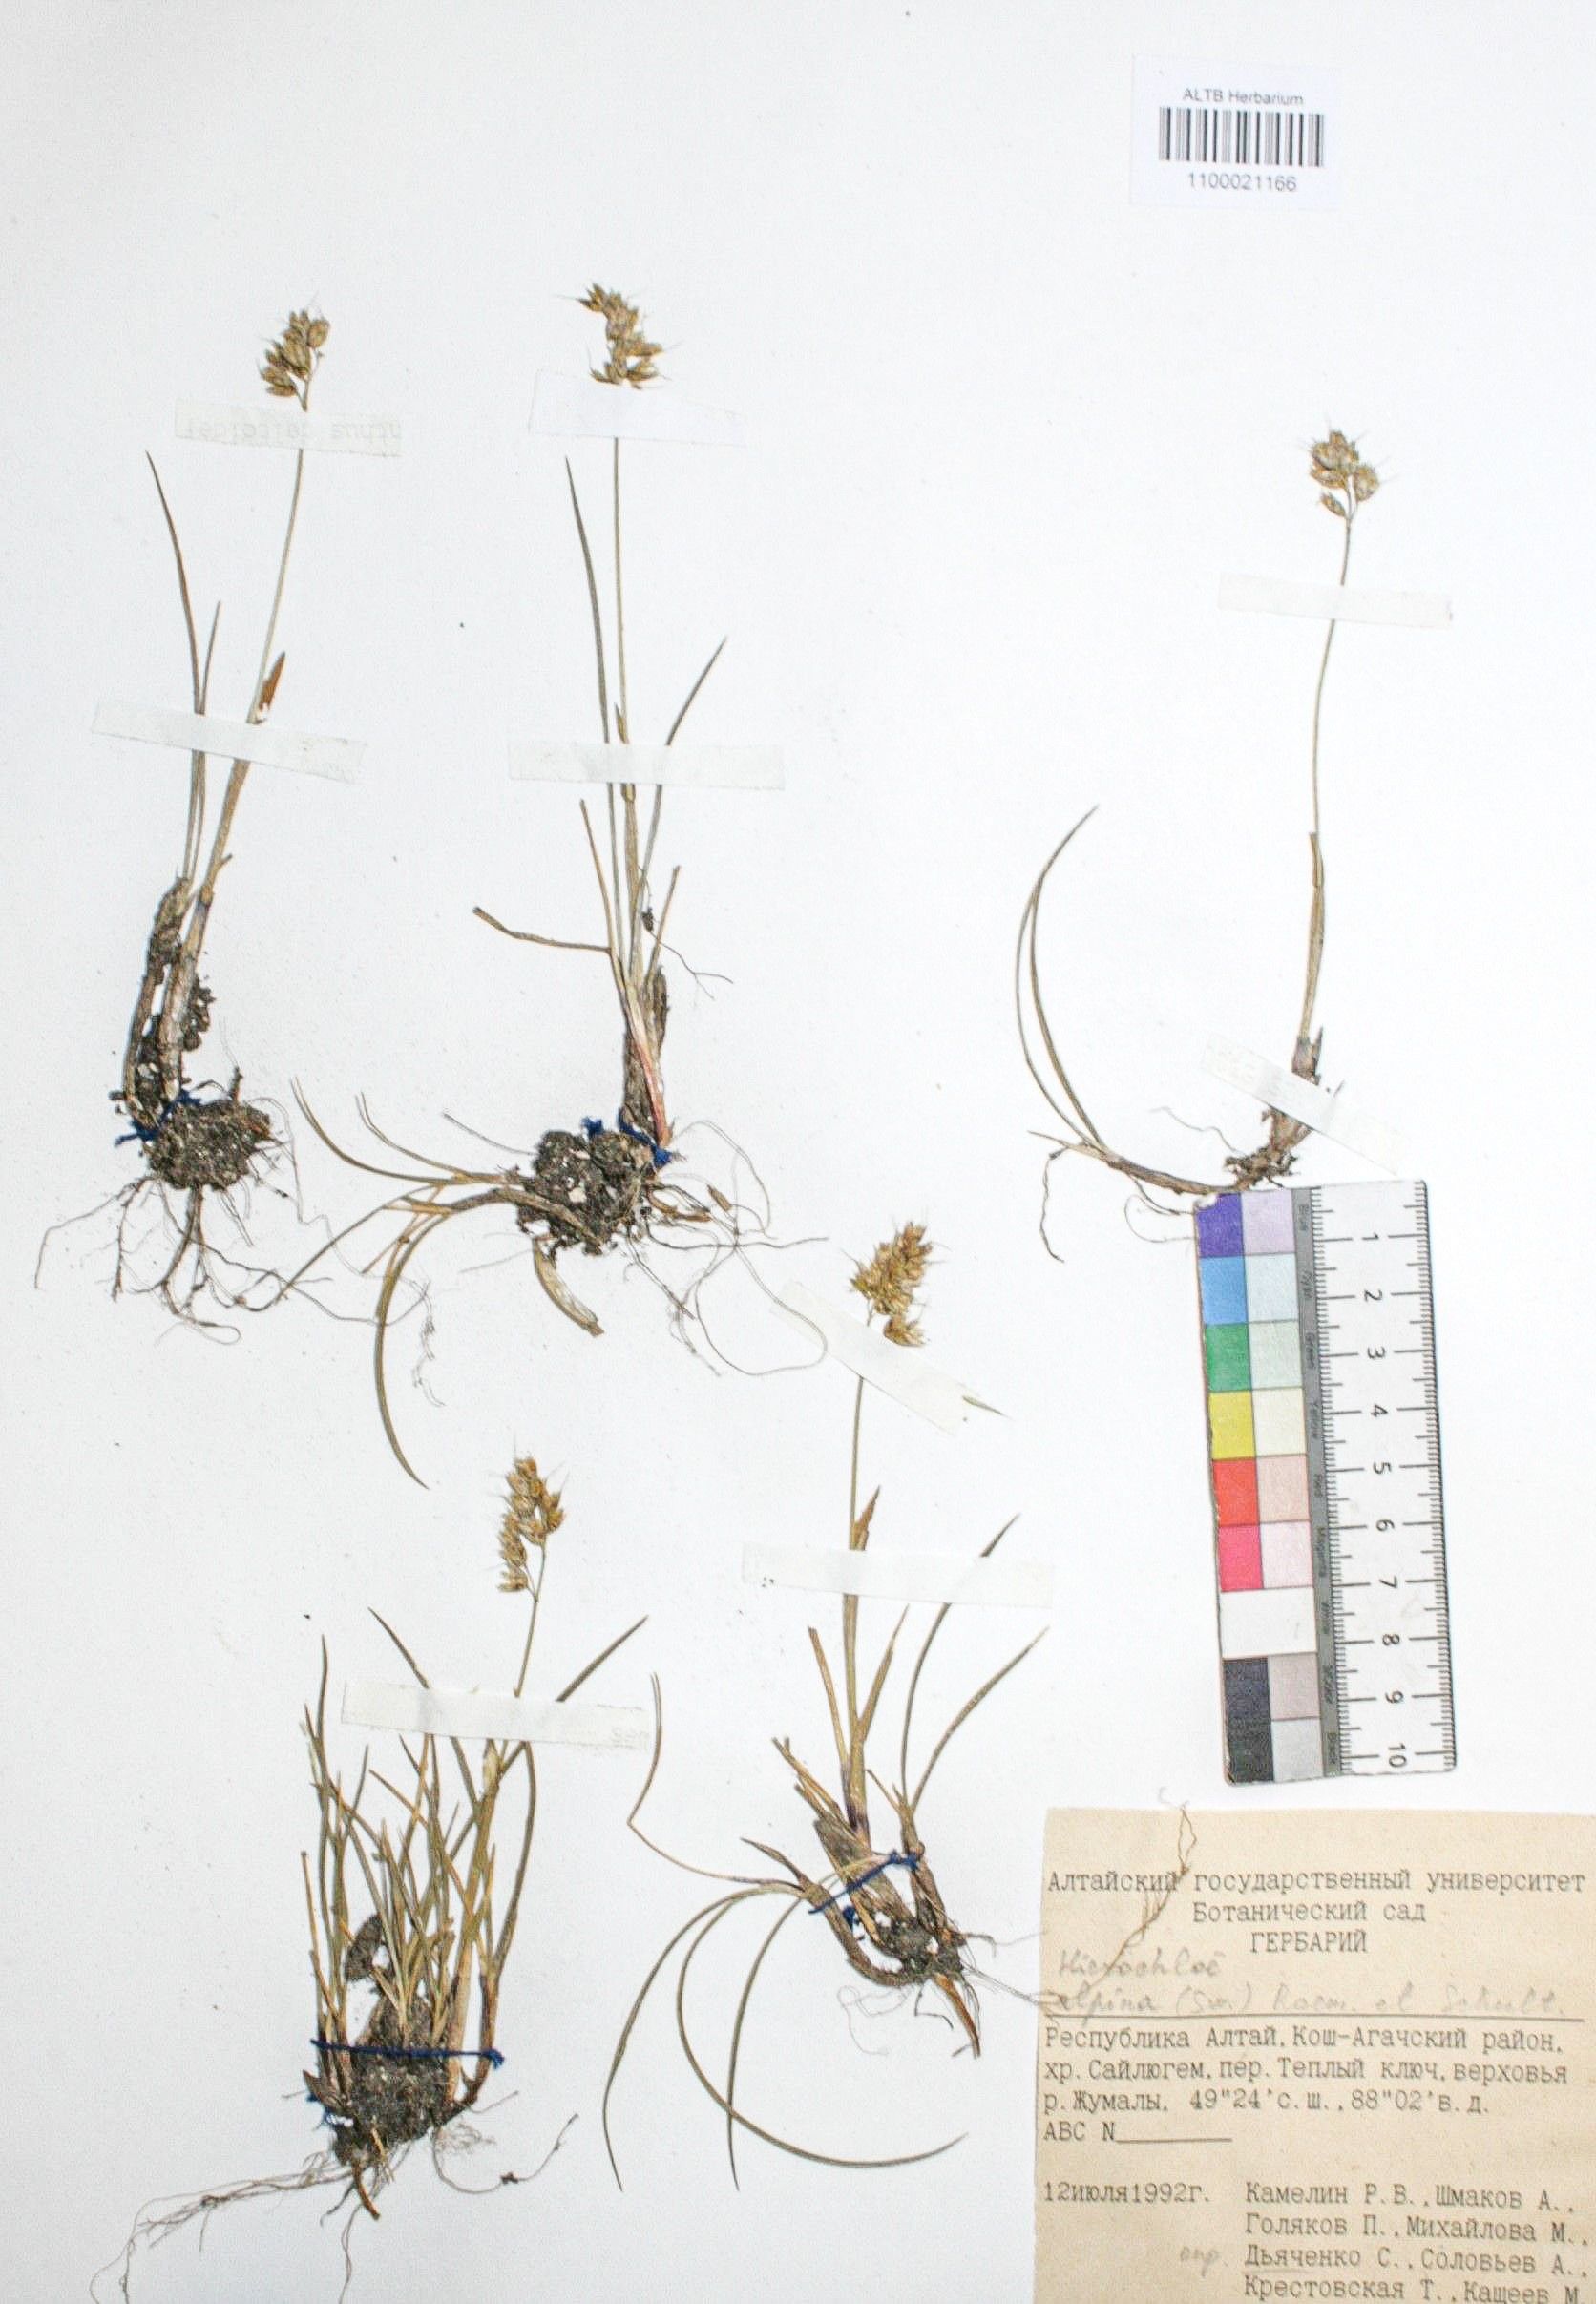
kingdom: Plantae
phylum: Tracheophyta
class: Liliopsida
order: Poales
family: Poaceae
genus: Anthoxanthum
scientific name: Anthoxanthum monticola
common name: Alpine sweetgrass
